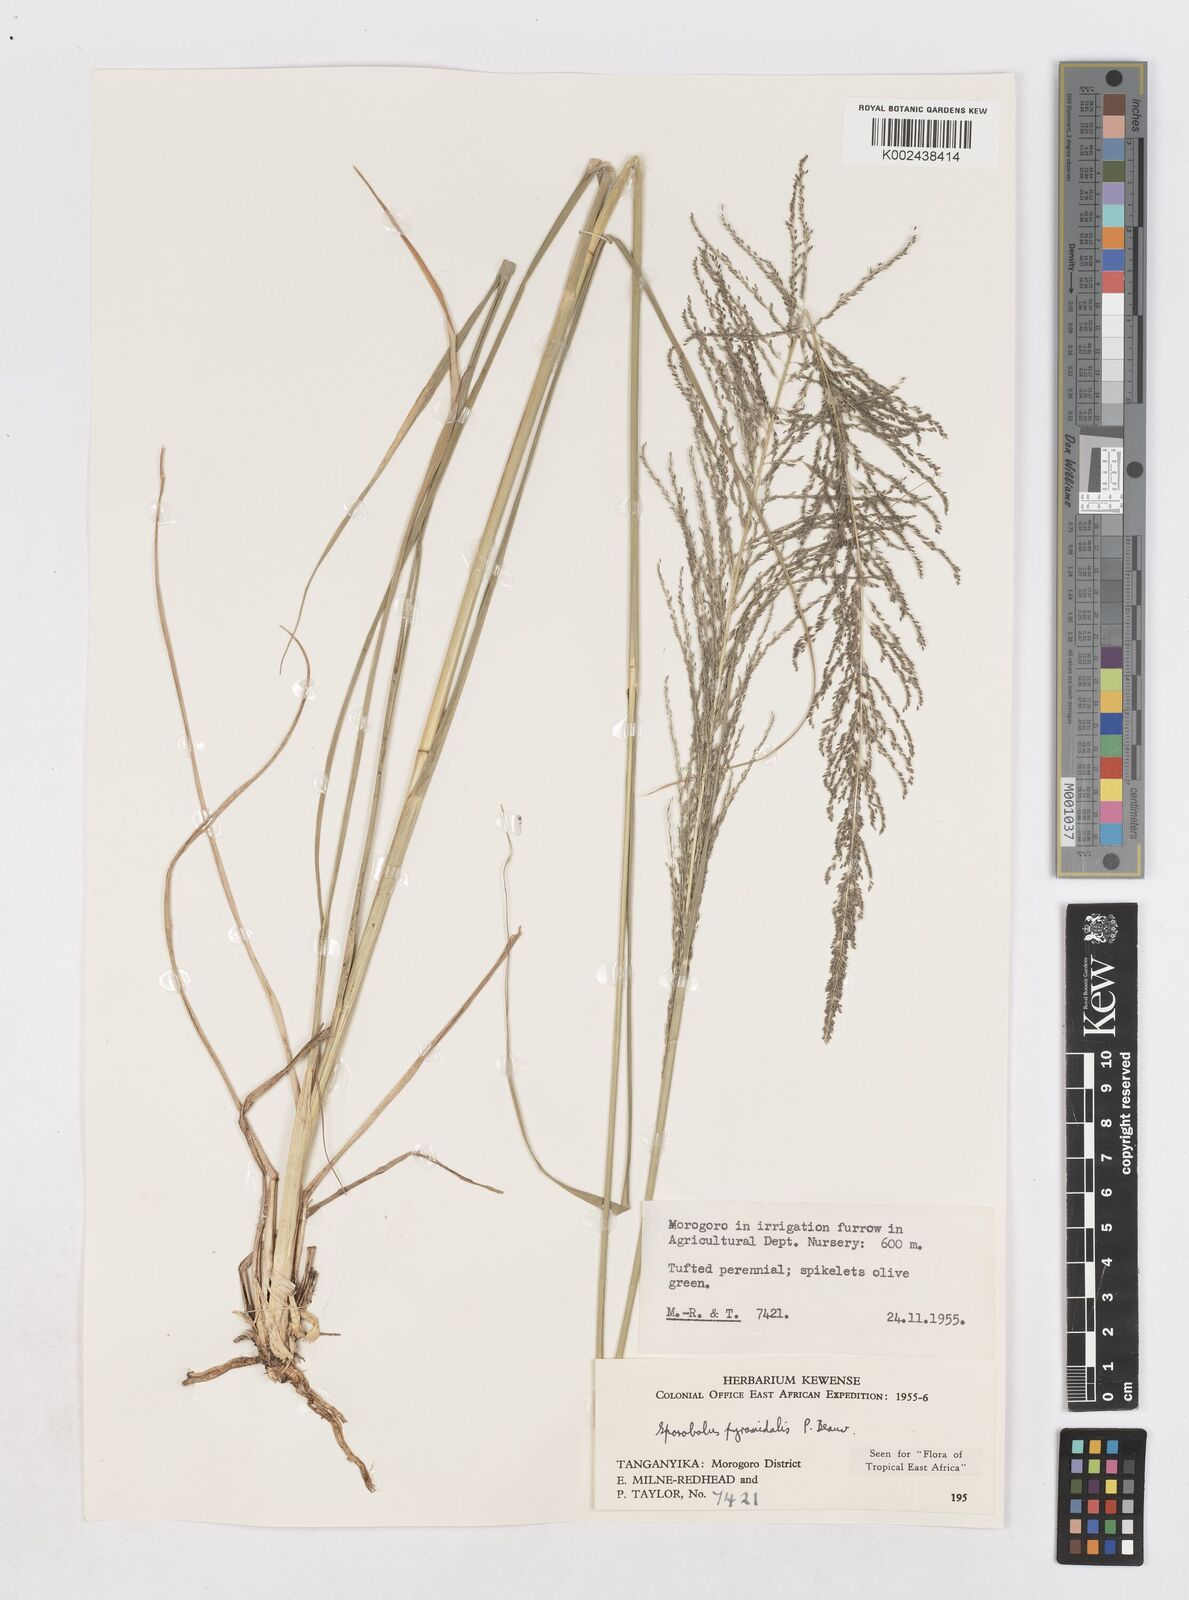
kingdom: Plantae
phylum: Tracheophyta
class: Liliopsida
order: Poales
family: Poaceae
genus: Sporobolus
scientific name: Sporobolus pyramidalis
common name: West indian dropseed
